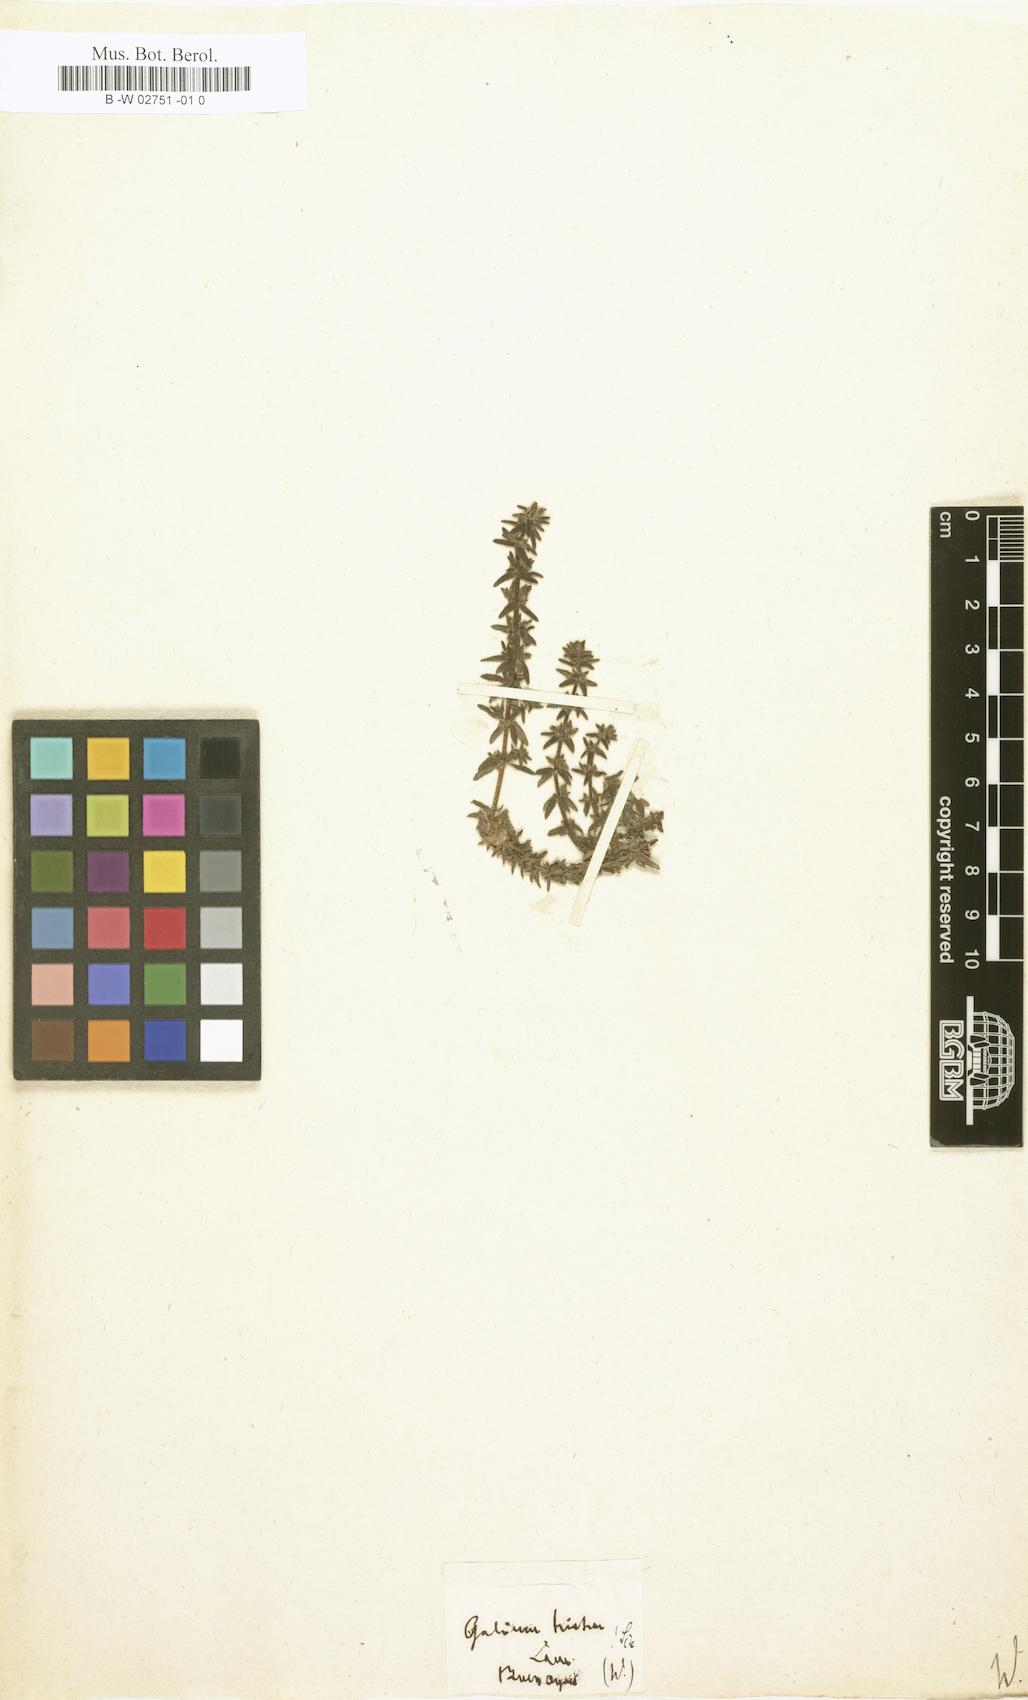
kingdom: Plantae
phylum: Tracheophyta
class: Magnoliopsida
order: Gentianales
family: Rubiaceae
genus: Galium
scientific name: Galium hirtum
